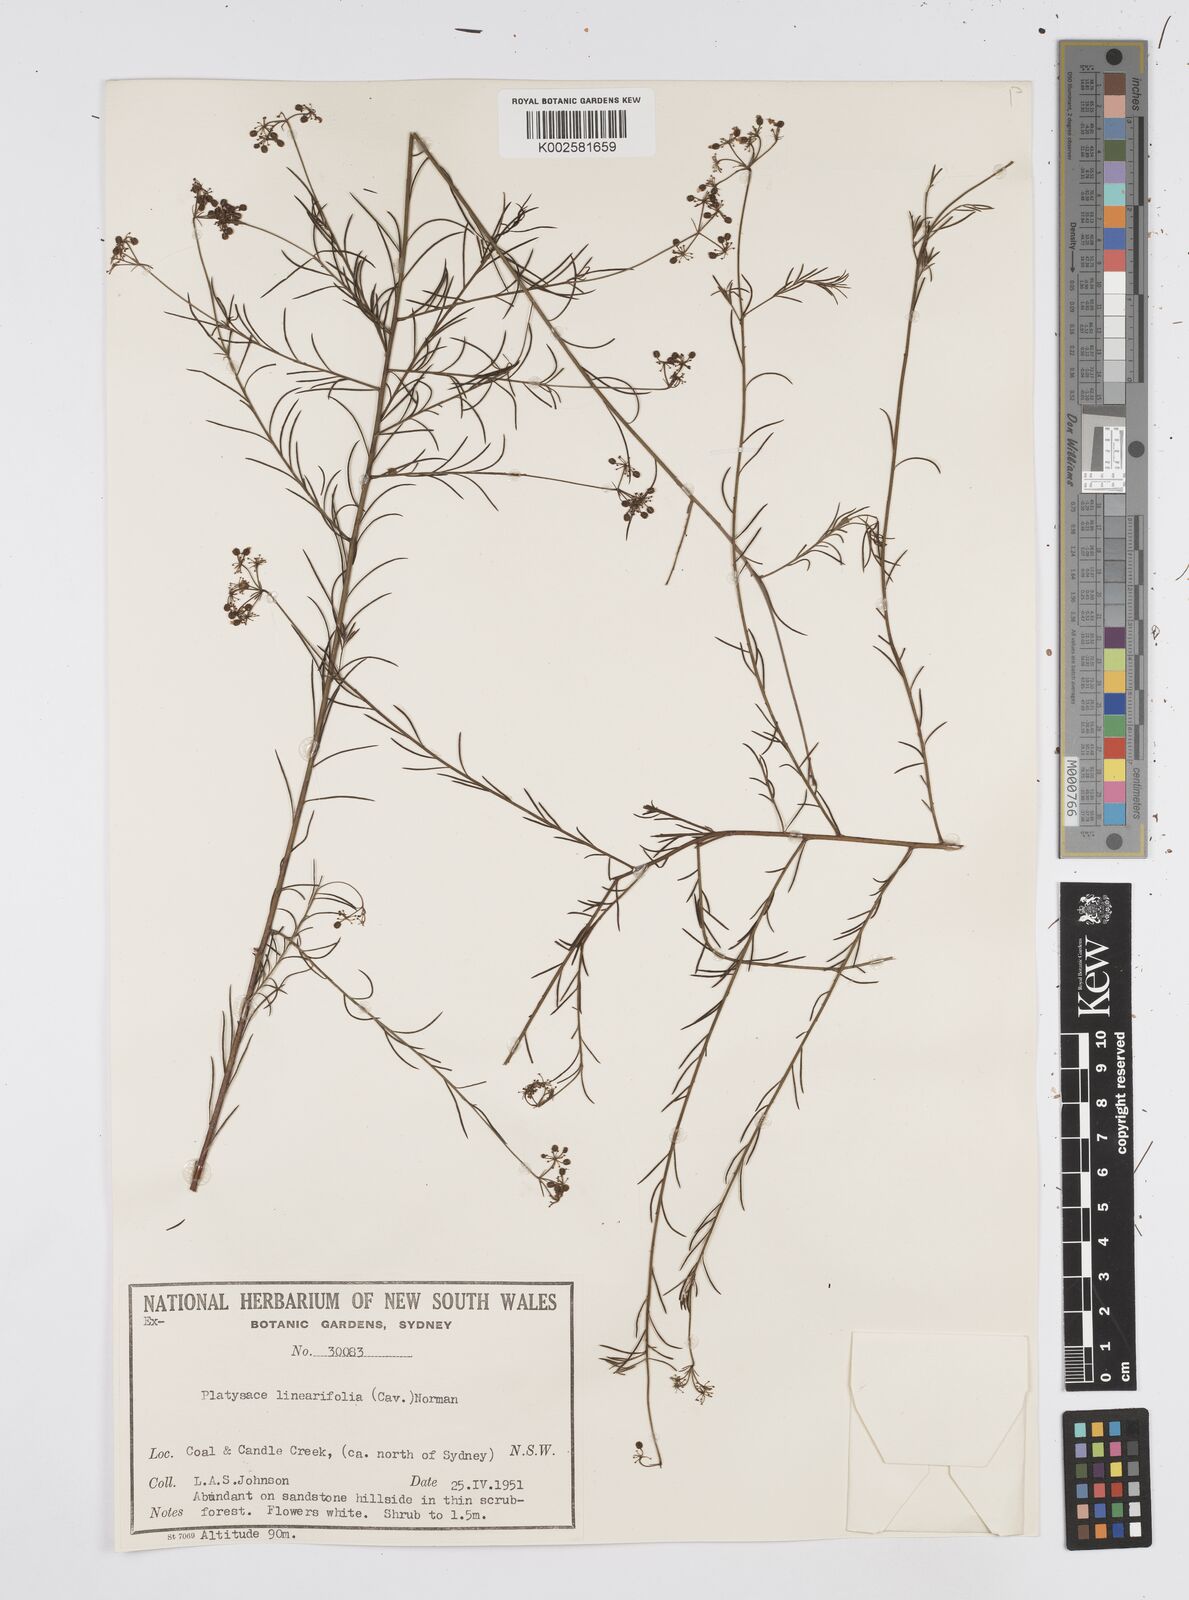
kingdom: Plantae
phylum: Tracheophyta
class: Magnoliopsida
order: Apiales
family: Apiaceae
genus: Platysace
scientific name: Platysace linearifolia
